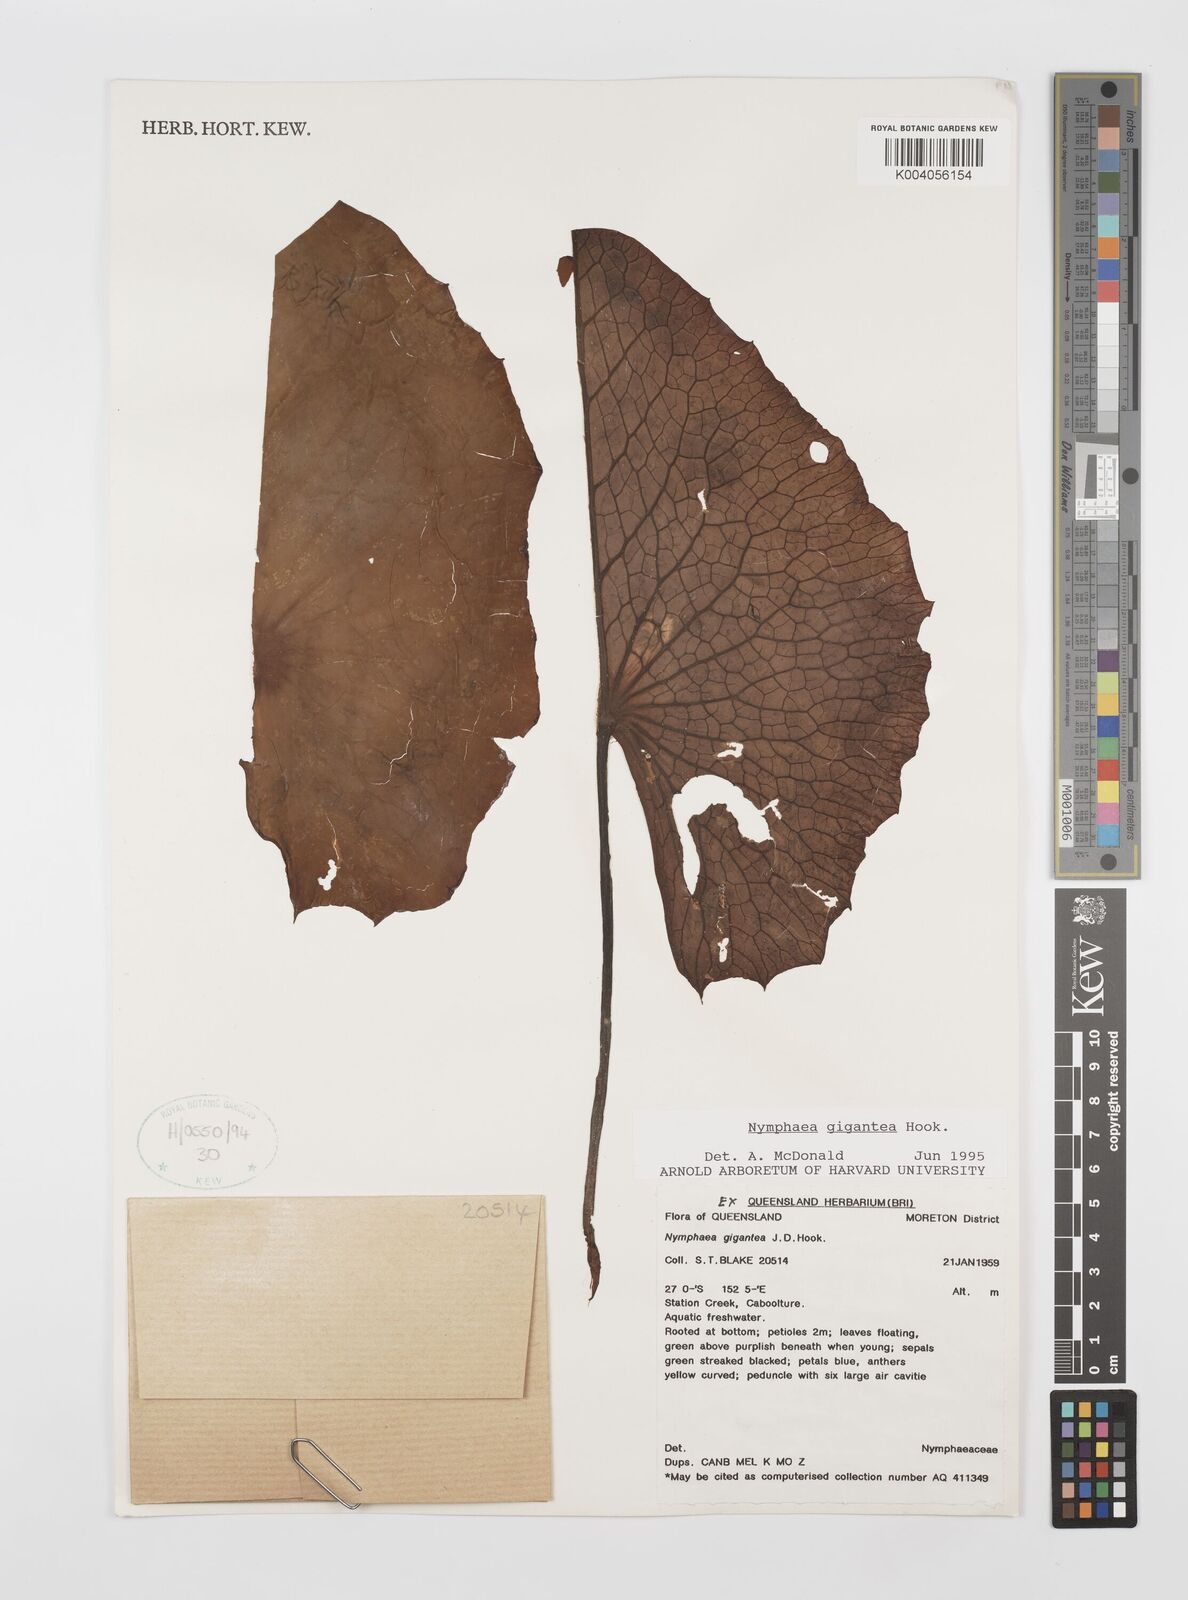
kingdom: Plantae
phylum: Tracheophyta
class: Magnoliopsida
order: Nymphaeales
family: Nymphaeaceae
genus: Nymphaea
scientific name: Nymphaea gigantea
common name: Giant water-lily
